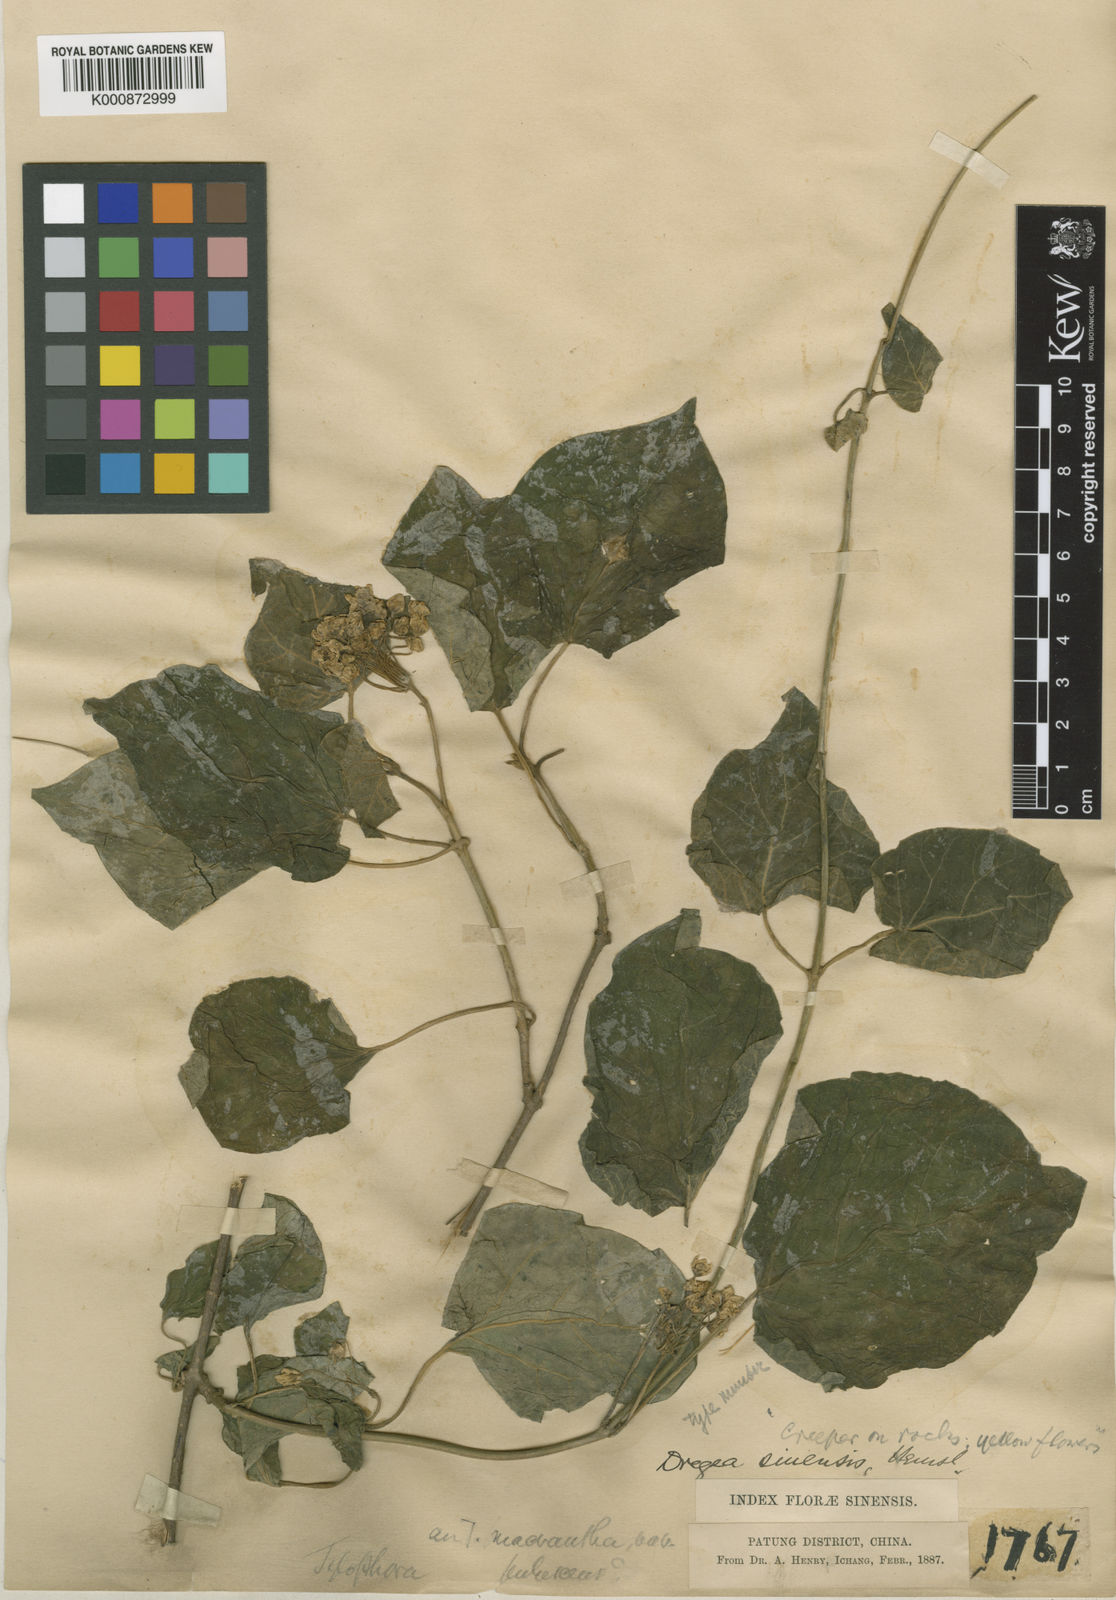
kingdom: Plantae
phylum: Tracheophyta
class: Magnoliopsida
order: Gentianales
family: Apocynaceae
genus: Stephanotis
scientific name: Stephanotis sinensis
